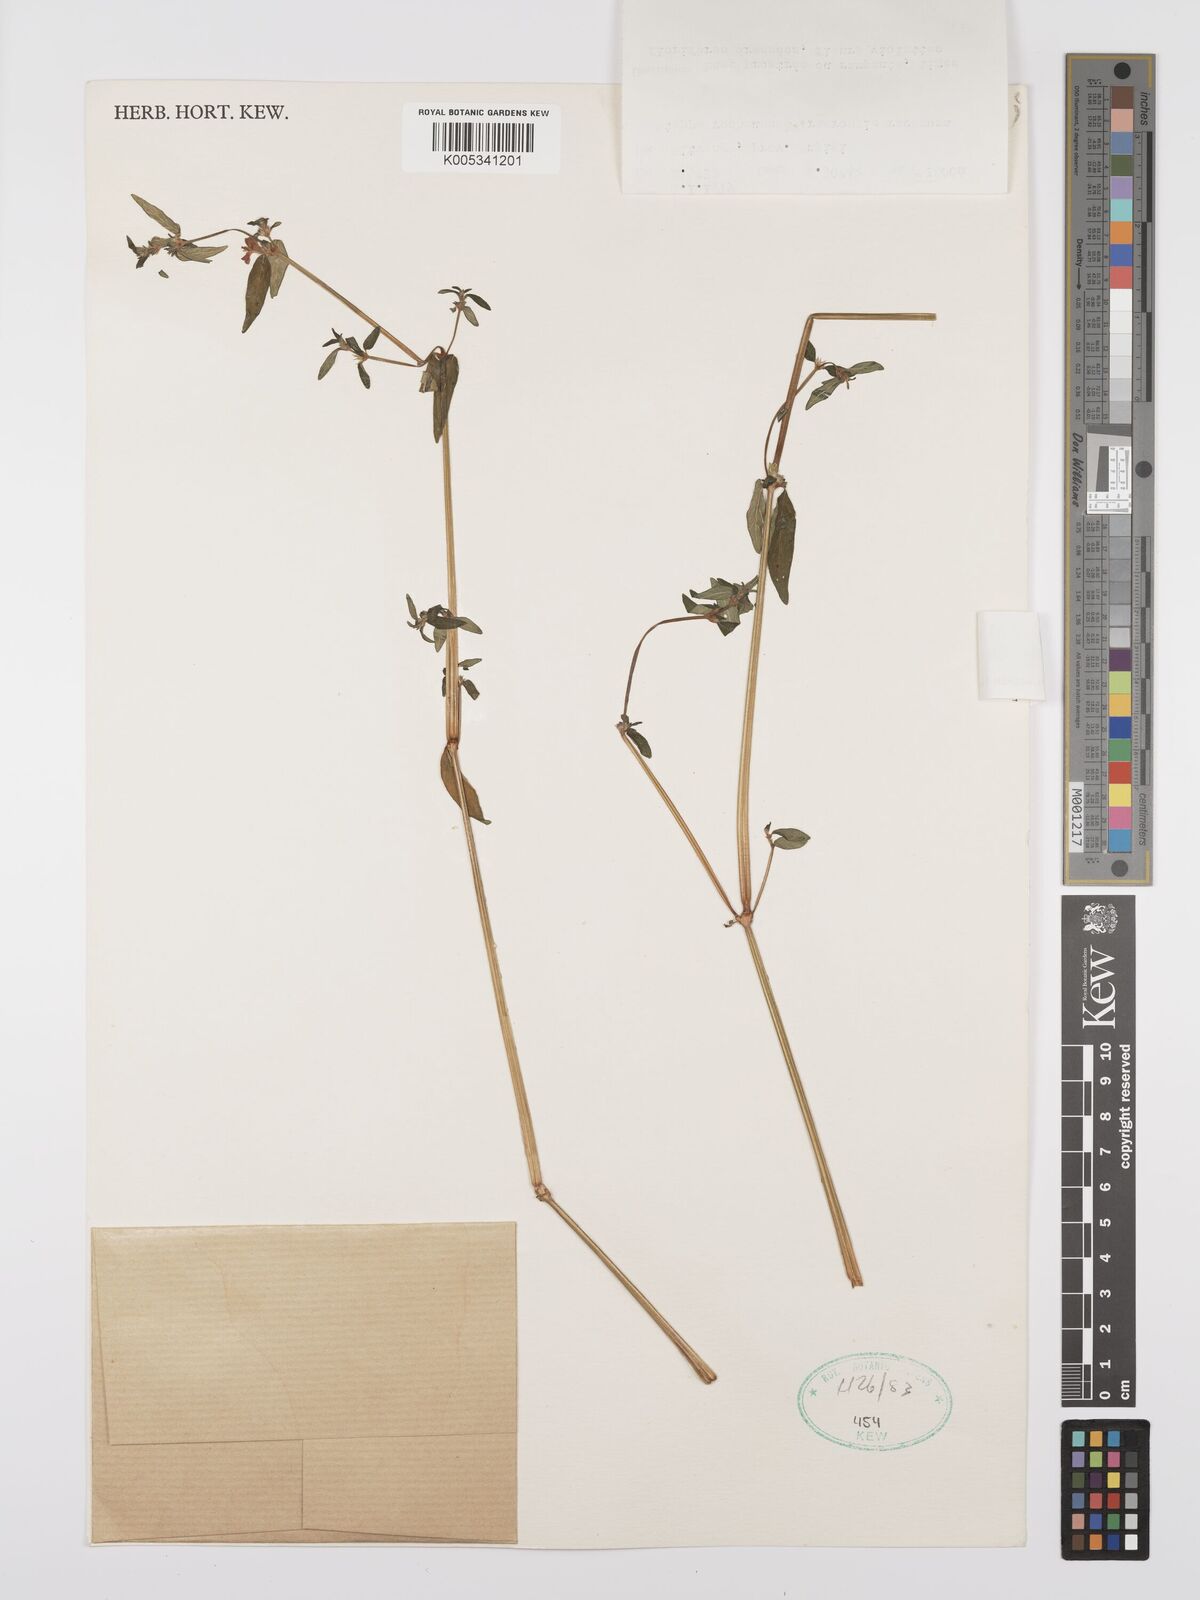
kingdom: Plantae
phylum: Tracheophyta
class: Magnoliopsida
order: Lamiales
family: Acanthaceae
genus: Justicia
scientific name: Justicia heterocarpa
